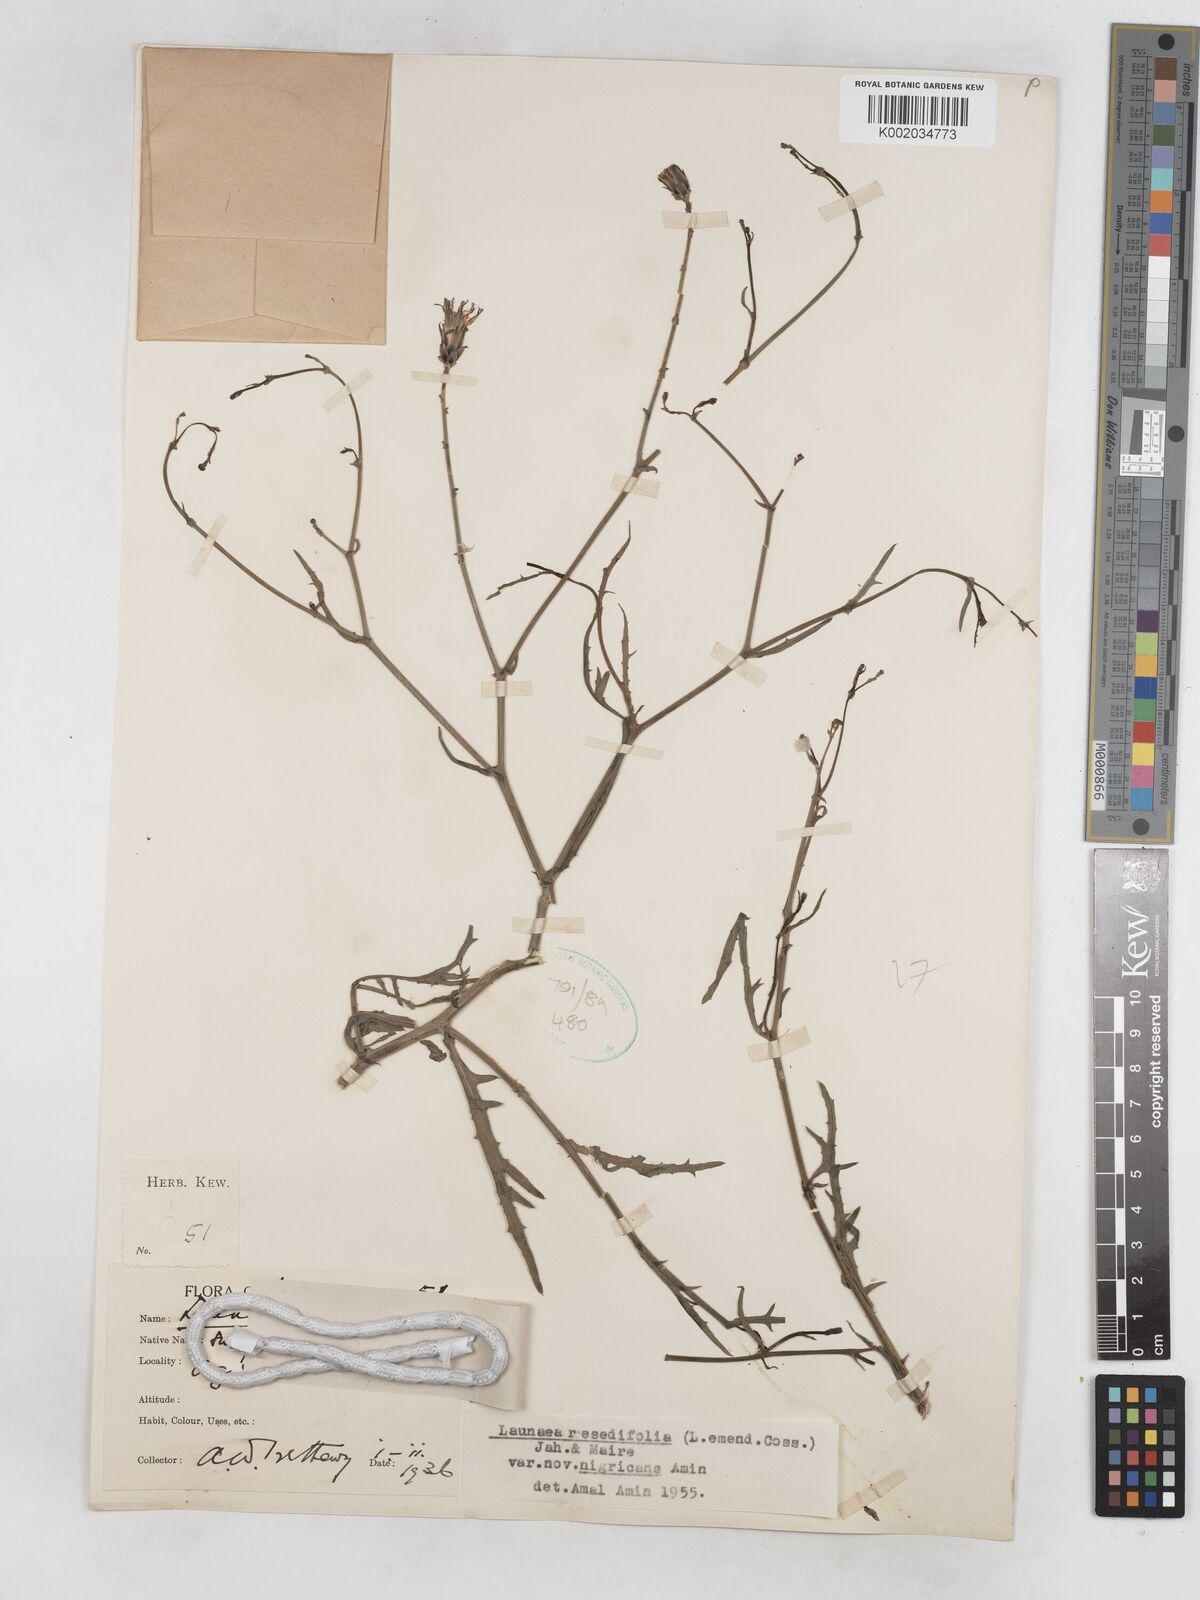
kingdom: Plantae
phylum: Tracheophyta
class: Magnoliopsida
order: Asterales
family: Asteraceae
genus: Launaea
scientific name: Launaea fragilis
